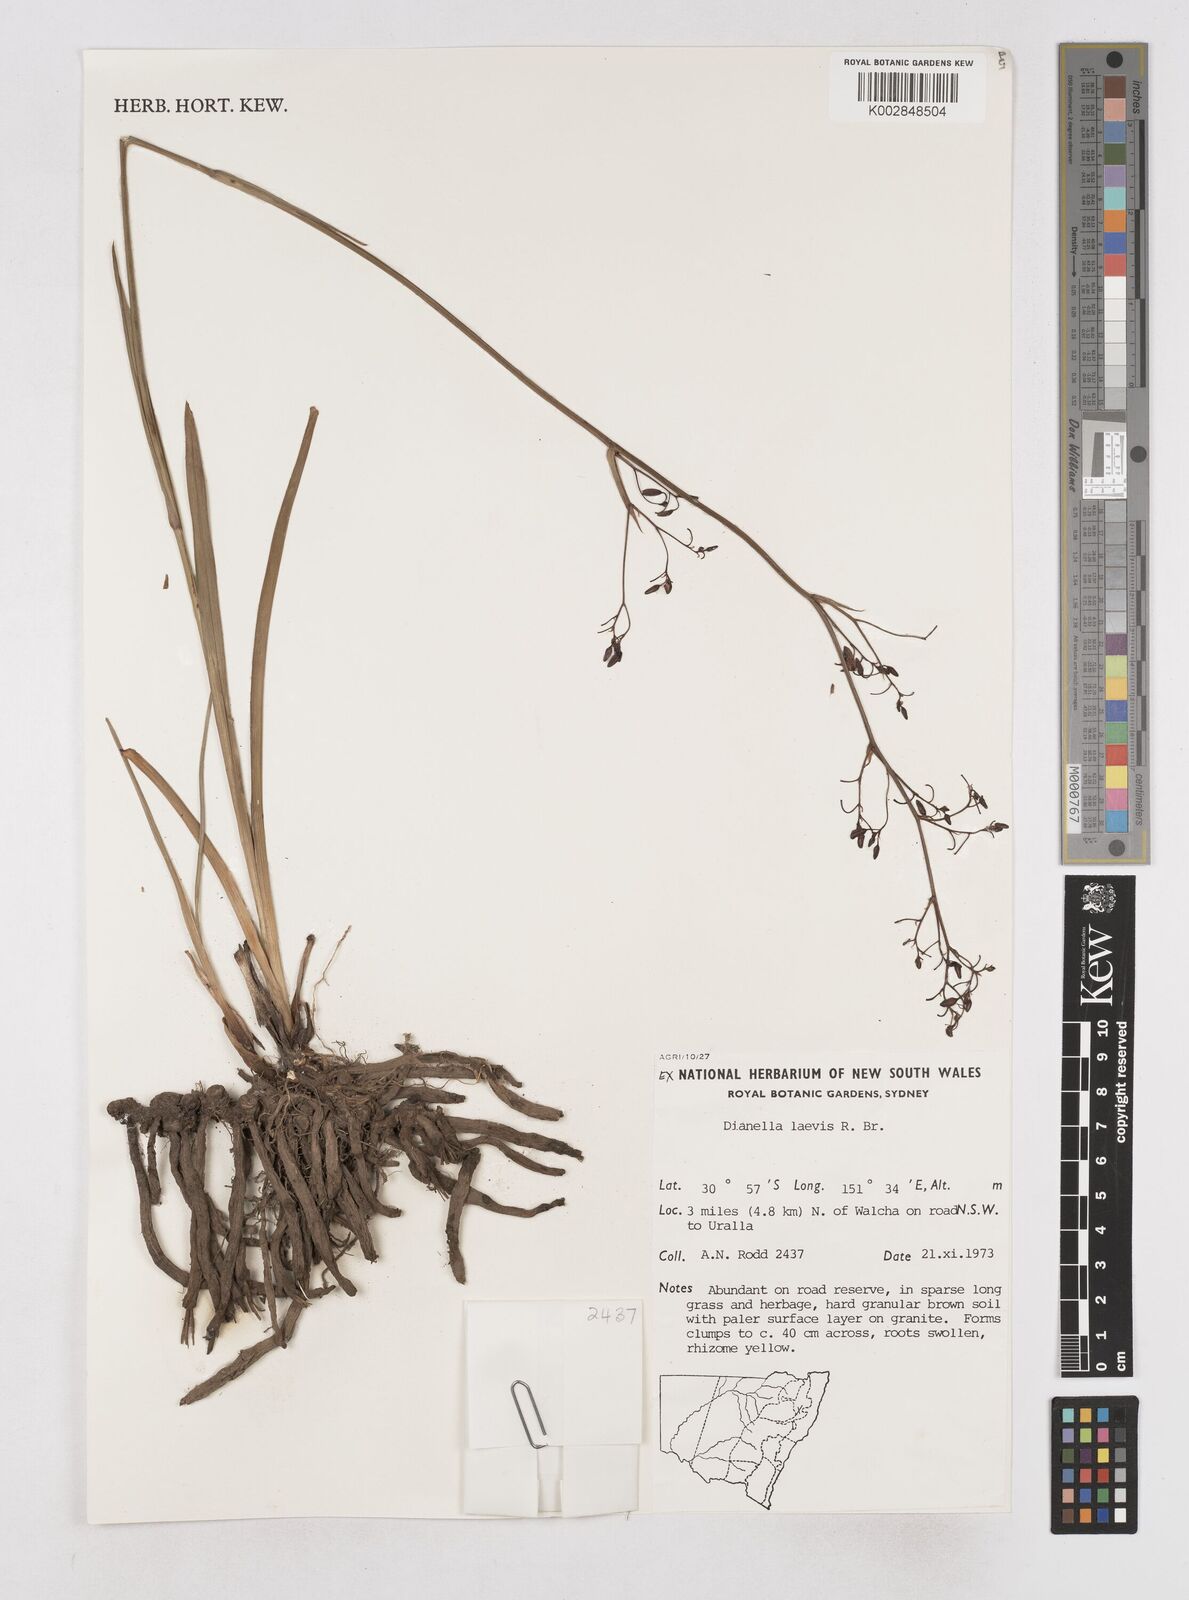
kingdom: Plantae
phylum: Tracheophyta
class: Liliopsida
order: Asparagales
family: Asphodelaceae
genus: Dianella
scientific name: Dianella longifolia
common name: Blue flax-lily
